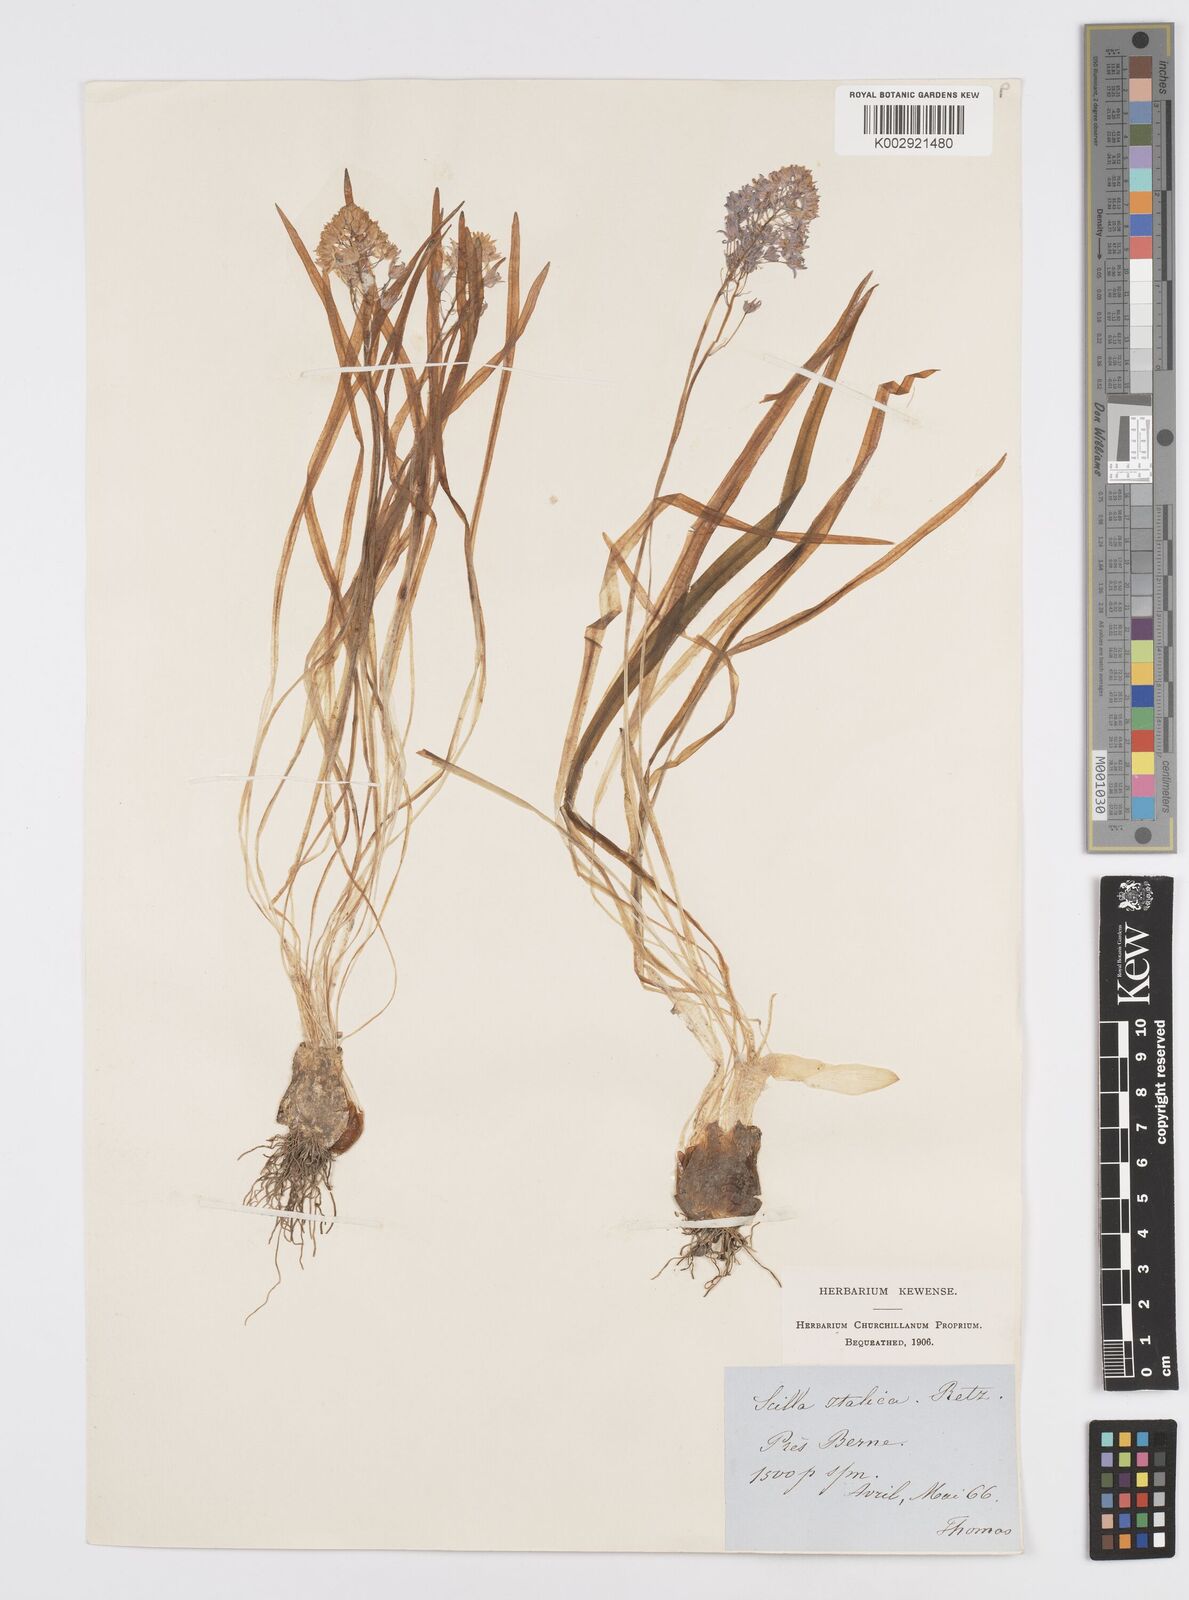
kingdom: Plantae
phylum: Tracheophyta
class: Liliopsida
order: Asparagales
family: Asparagaceae
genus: Hyacinthoides
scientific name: Hyacinthoides italica
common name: Italian bluebell
